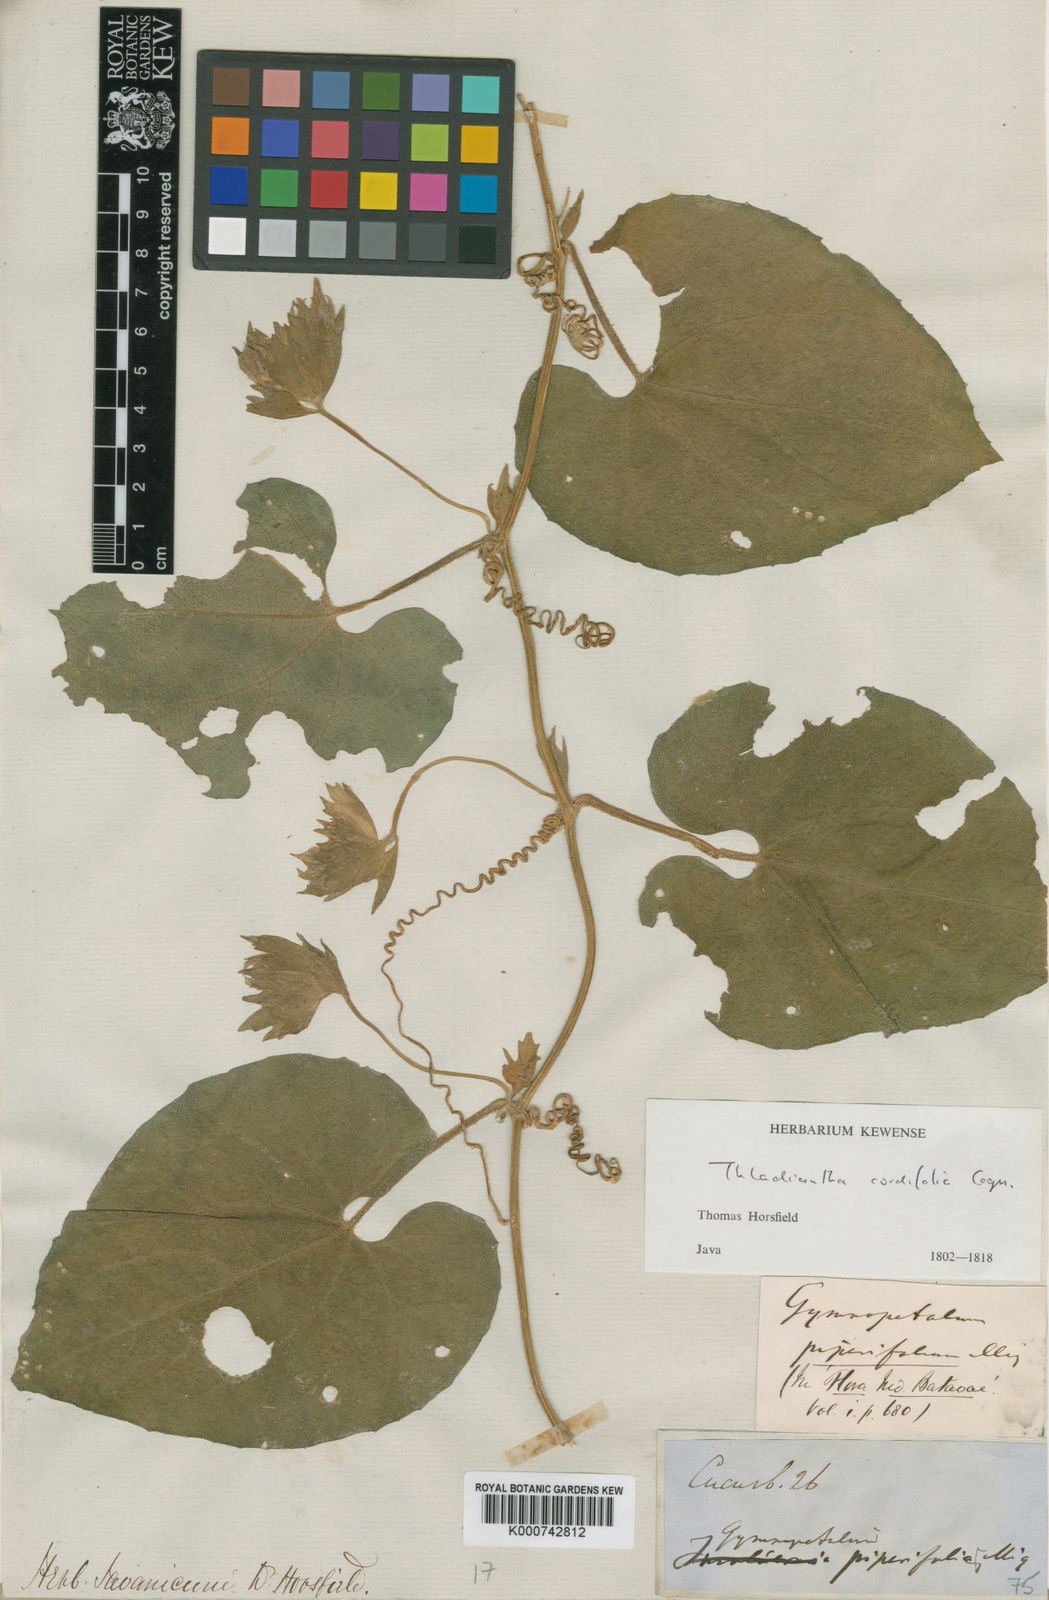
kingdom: Plantae
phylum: Tracheophyta
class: Magnoliopsida
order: Cucurbitales
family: Cucurbitaceae
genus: Thladiantha
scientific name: Thladiantha cordifolia
